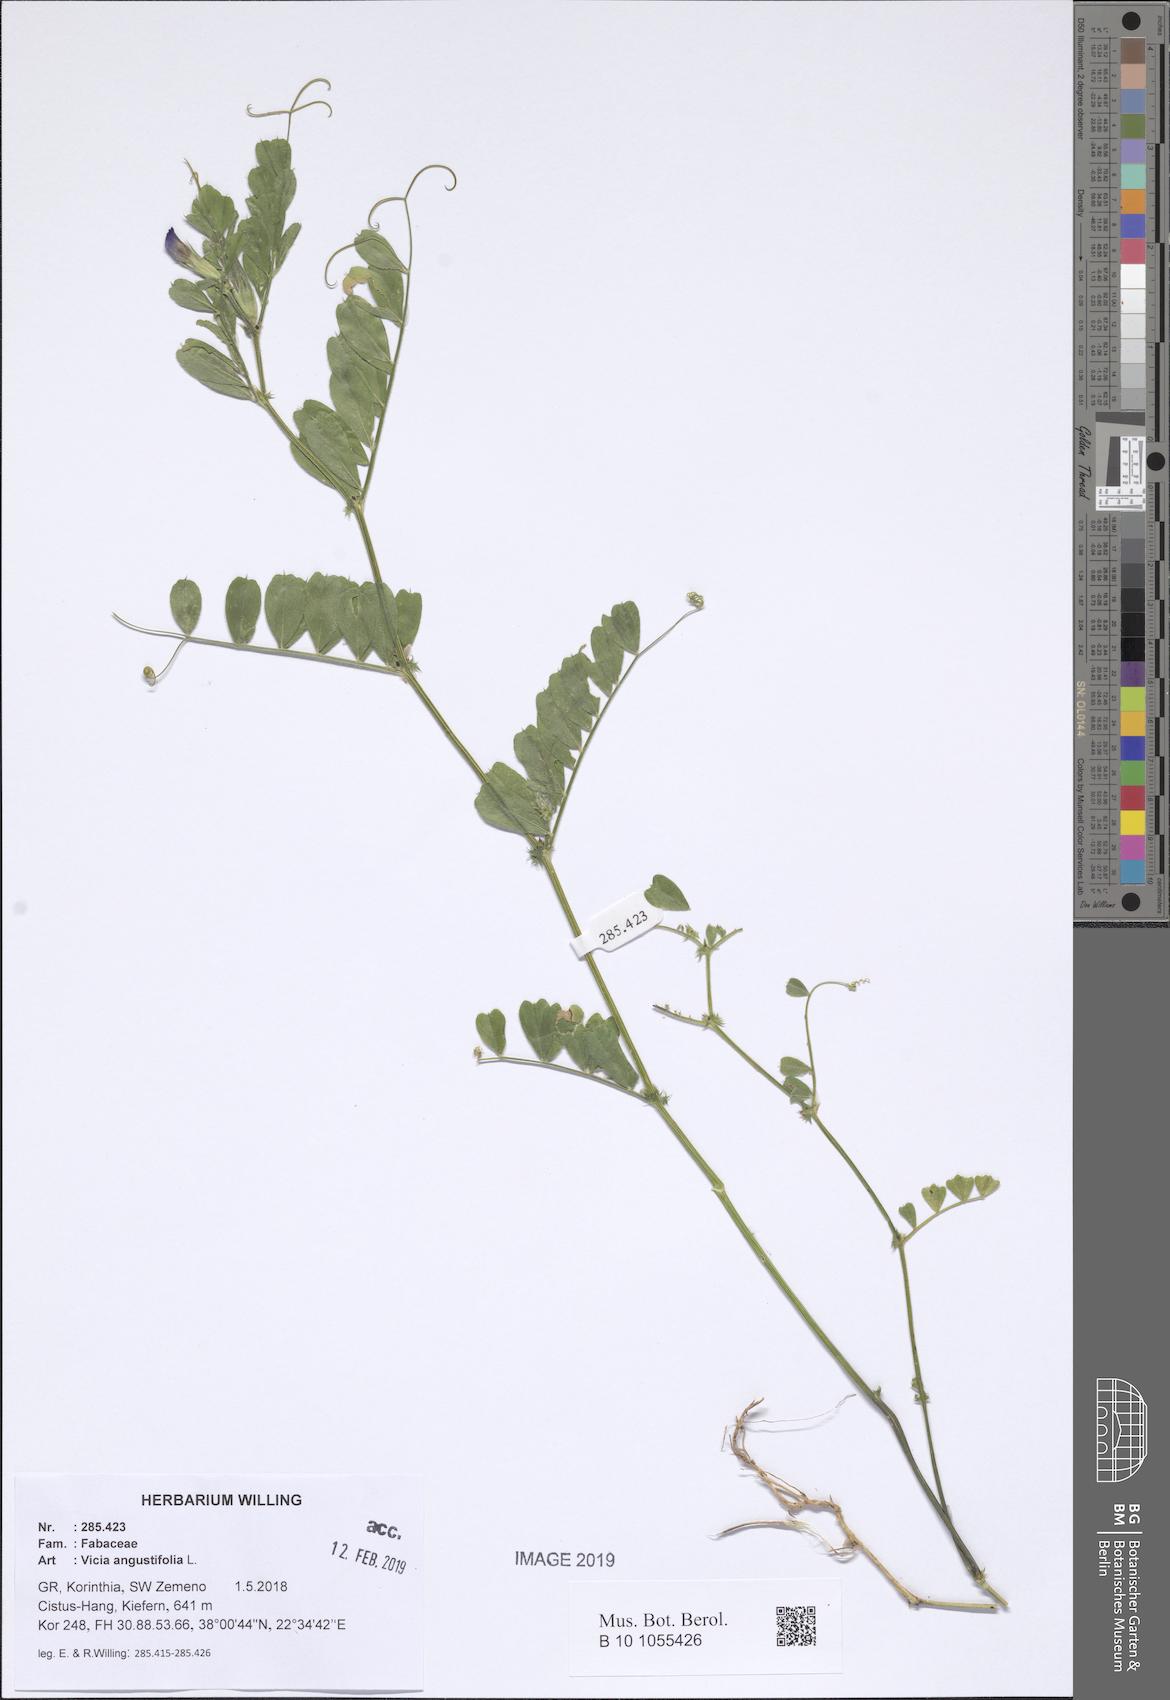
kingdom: Plantae
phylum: Tracheophyta
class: Magnoliopsida
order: Fabales
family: Fabaceae
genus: Vicia
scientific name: Vicia sativa
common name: Garden vetch
